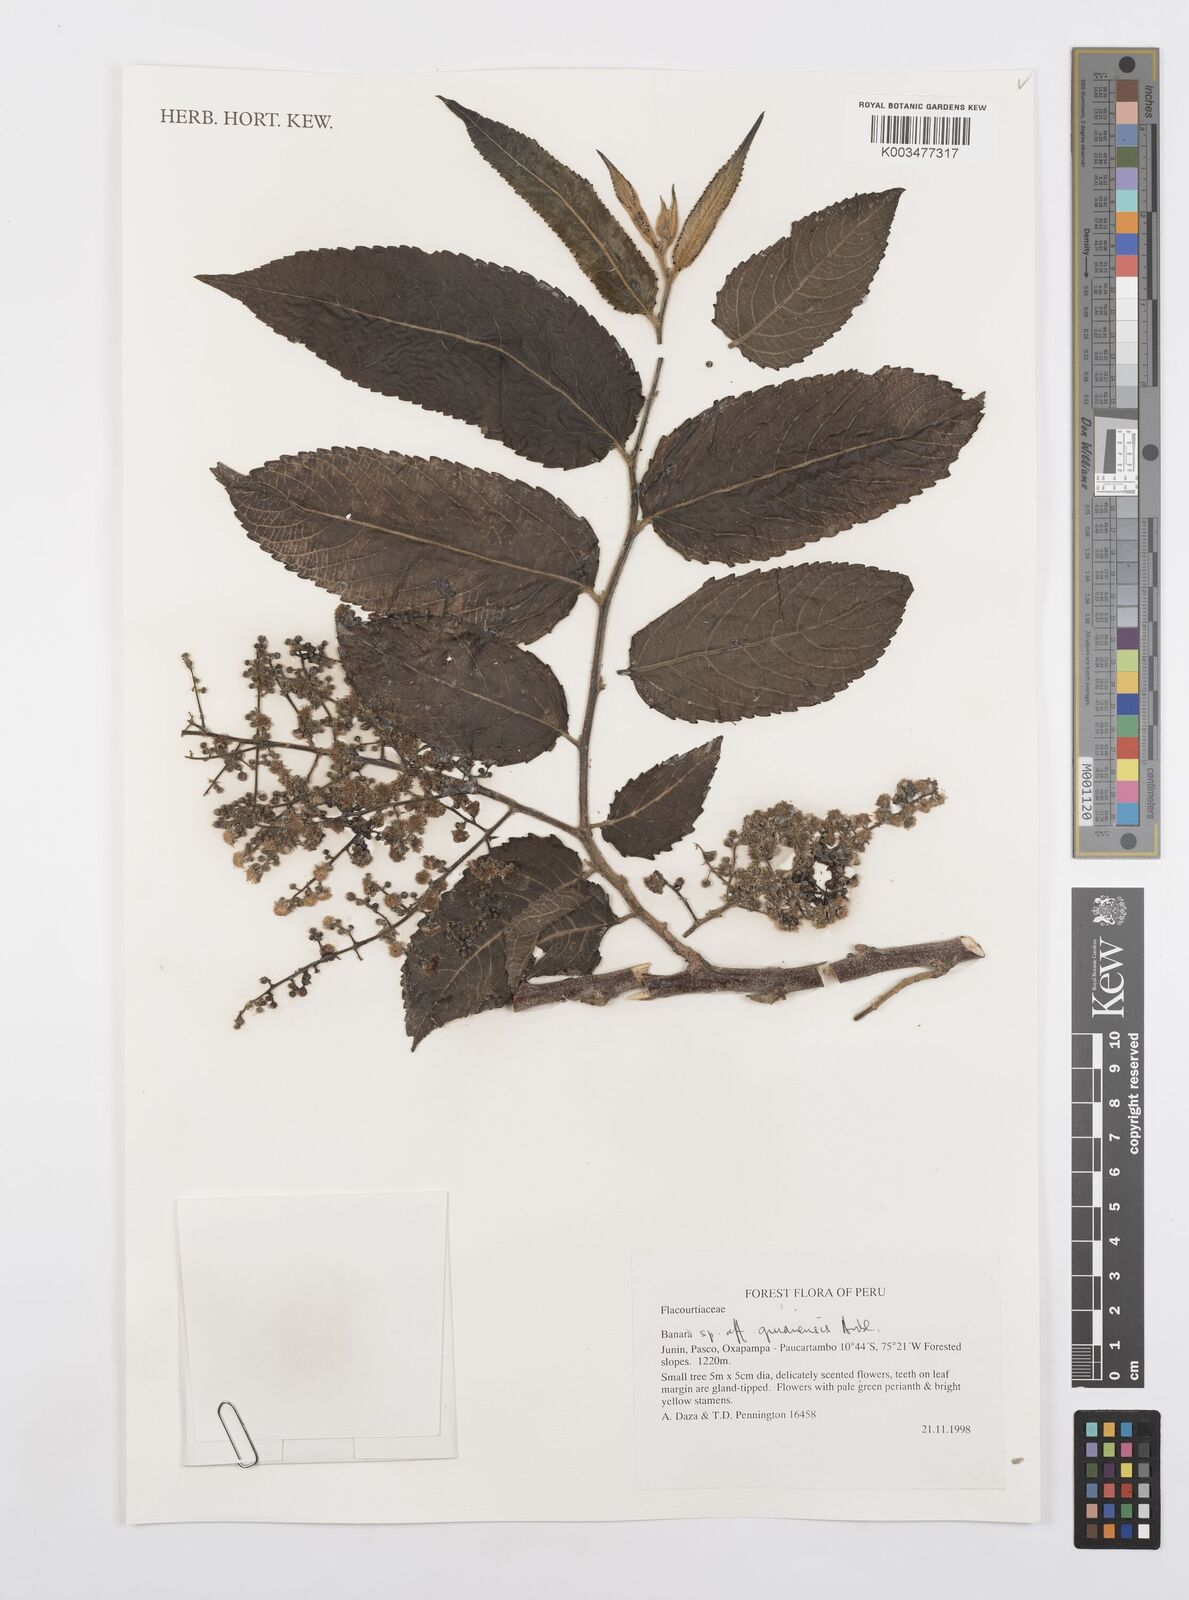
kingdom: Plantae
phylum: Tracheophyta
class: Magnoliopsida
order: Malpighiales
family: Salicaceae
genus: Banara
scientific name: Banara guianensis
